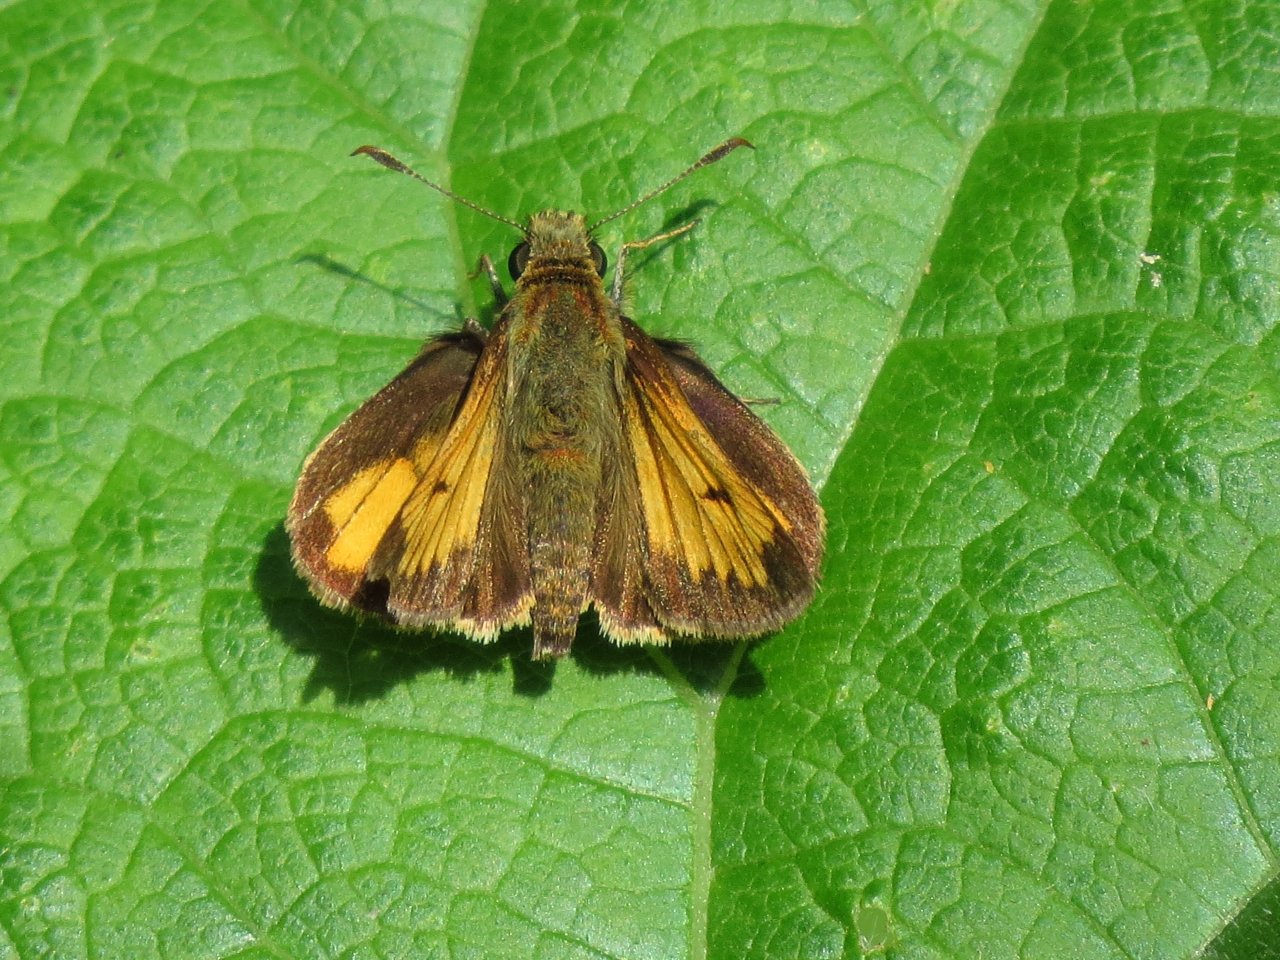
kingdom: Animalia
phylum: Arthropoda
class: Insecta
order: Lepidoptera
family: Hesperiidae
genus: Atrytone
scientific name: Atrytone delaware
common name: Delaware Skipper
